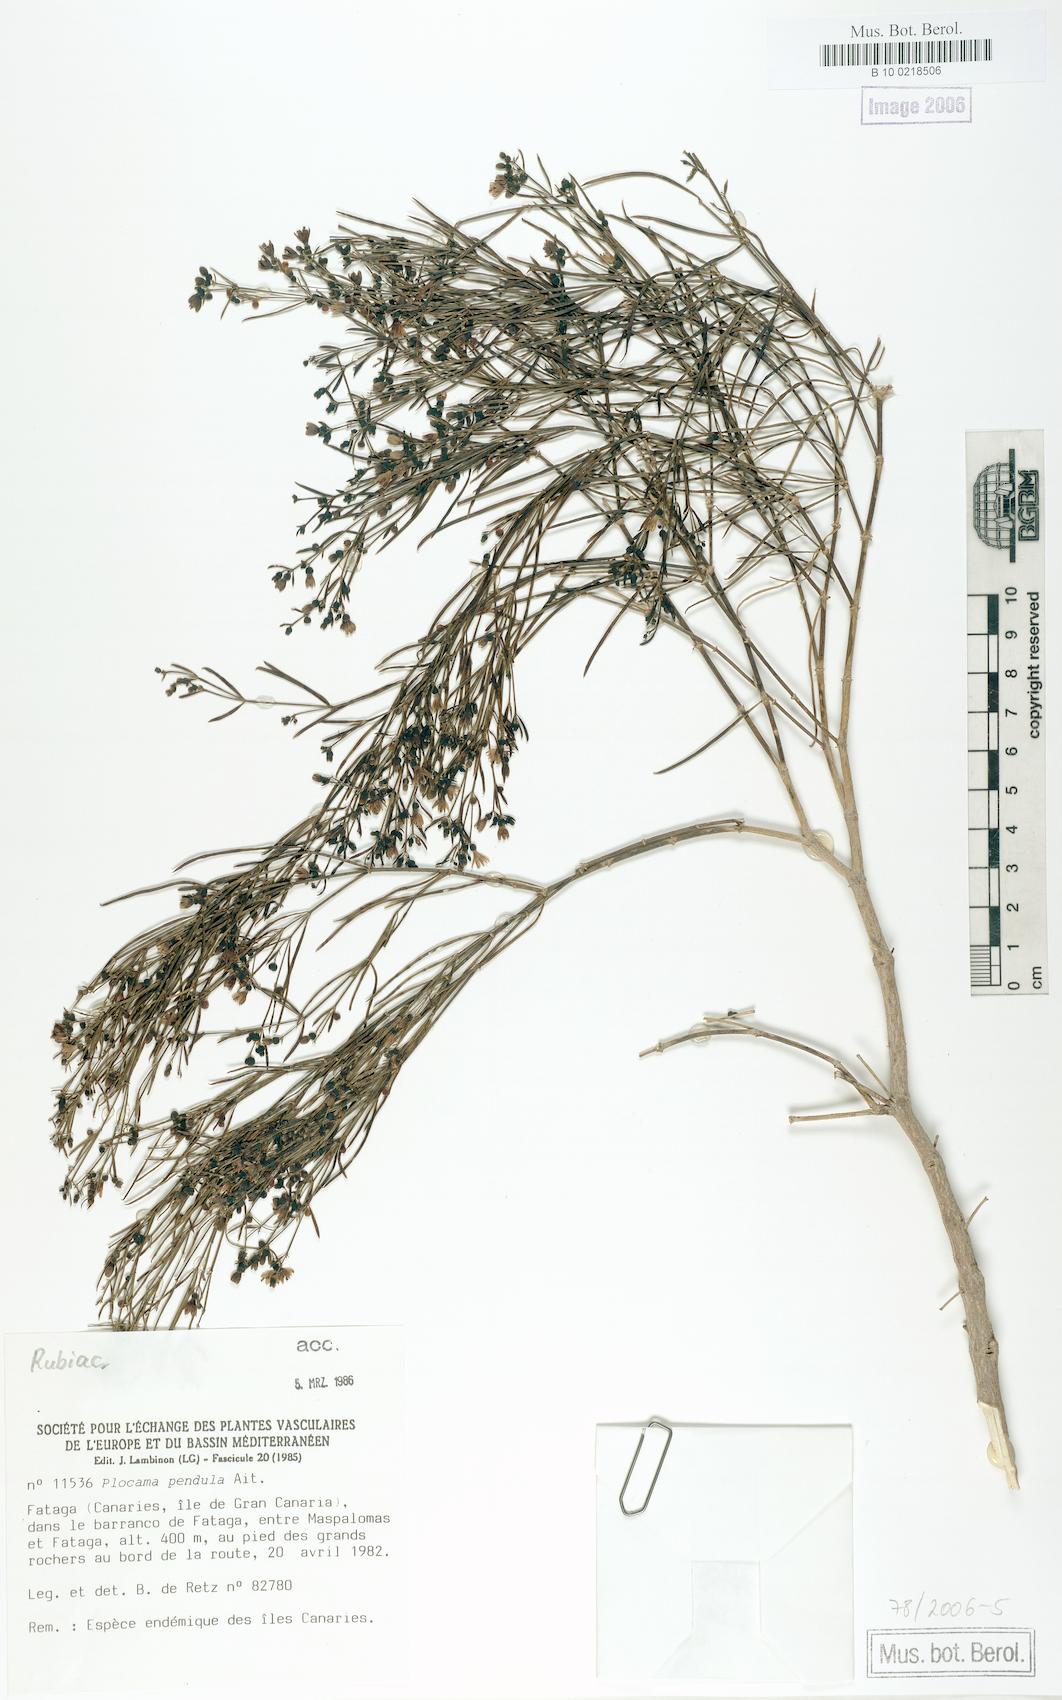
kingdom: Plantae
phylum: Tracheophyta
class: Magnoliopsida
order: Gentianales
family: Rubiaceae
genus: Plocama
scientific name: Plocama pendula
